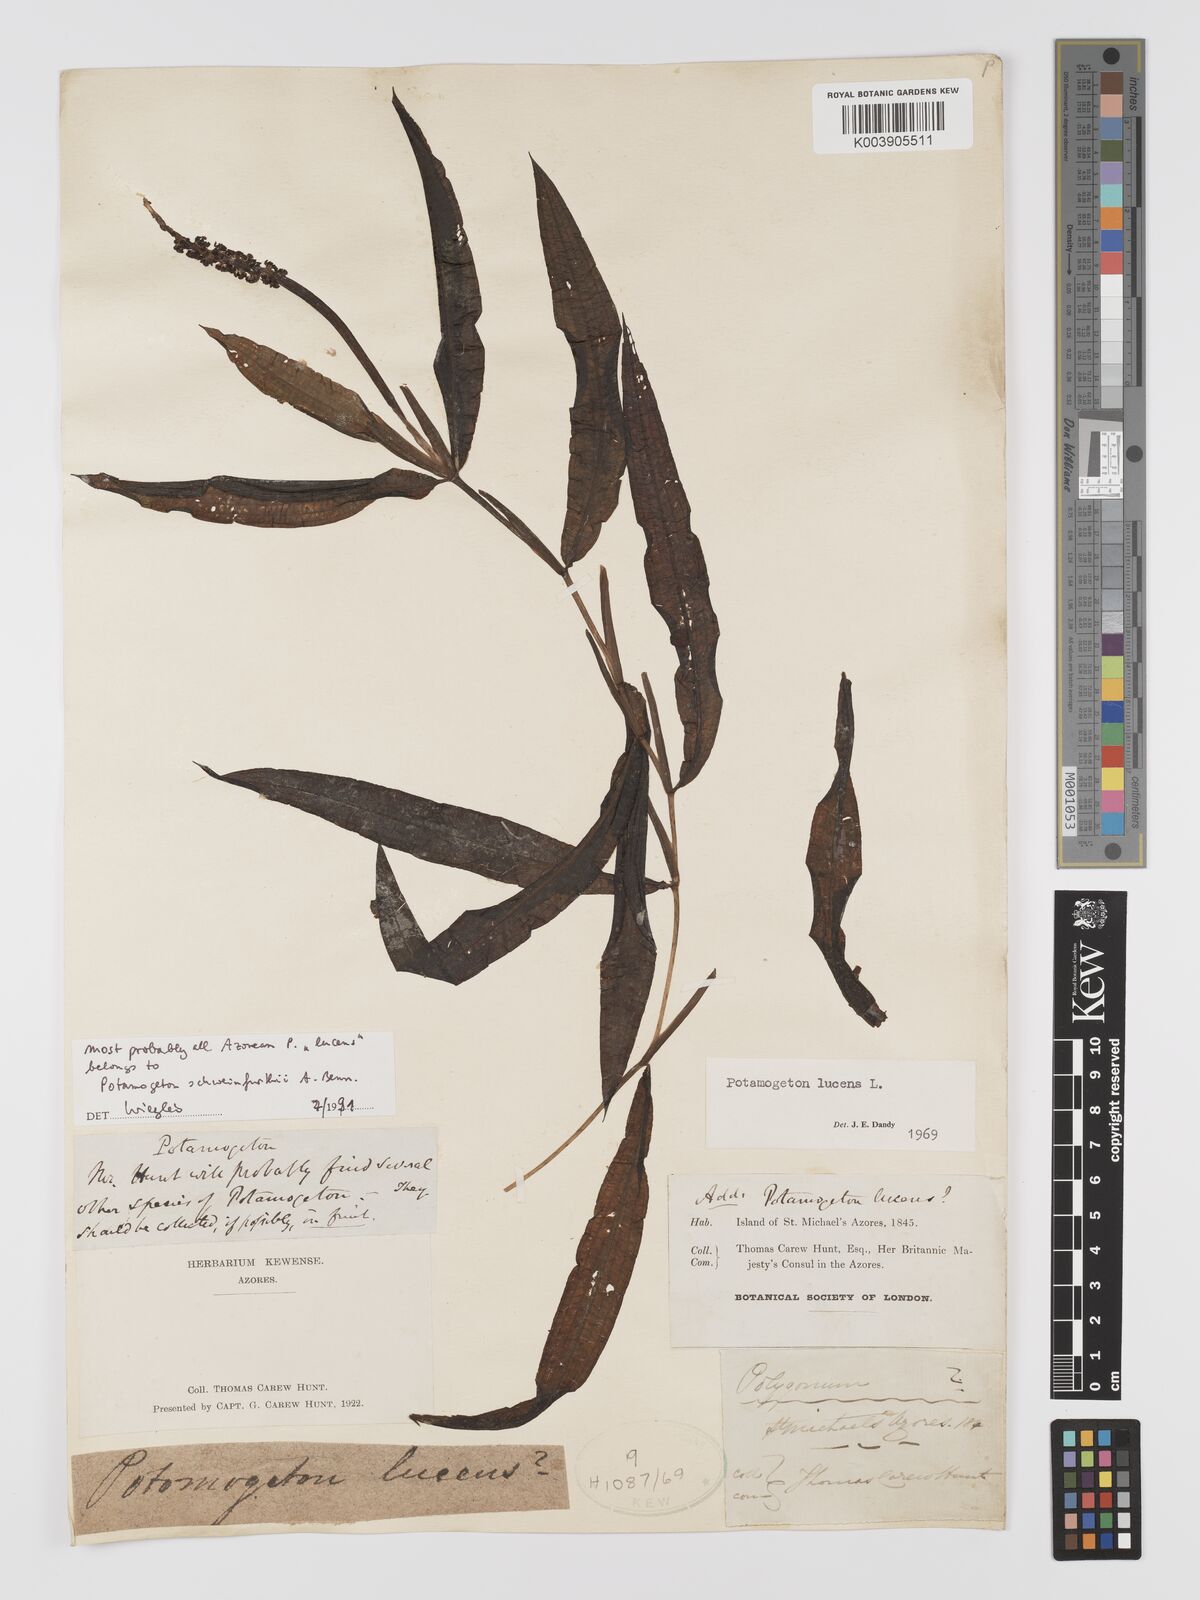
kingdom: Plantae
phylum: Tracheophyta
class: Liliopsida
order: Alismatales
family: Potamogetonaceae
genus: Potamogeton
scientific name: Potamogeton lucens
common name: Shining pondweed
